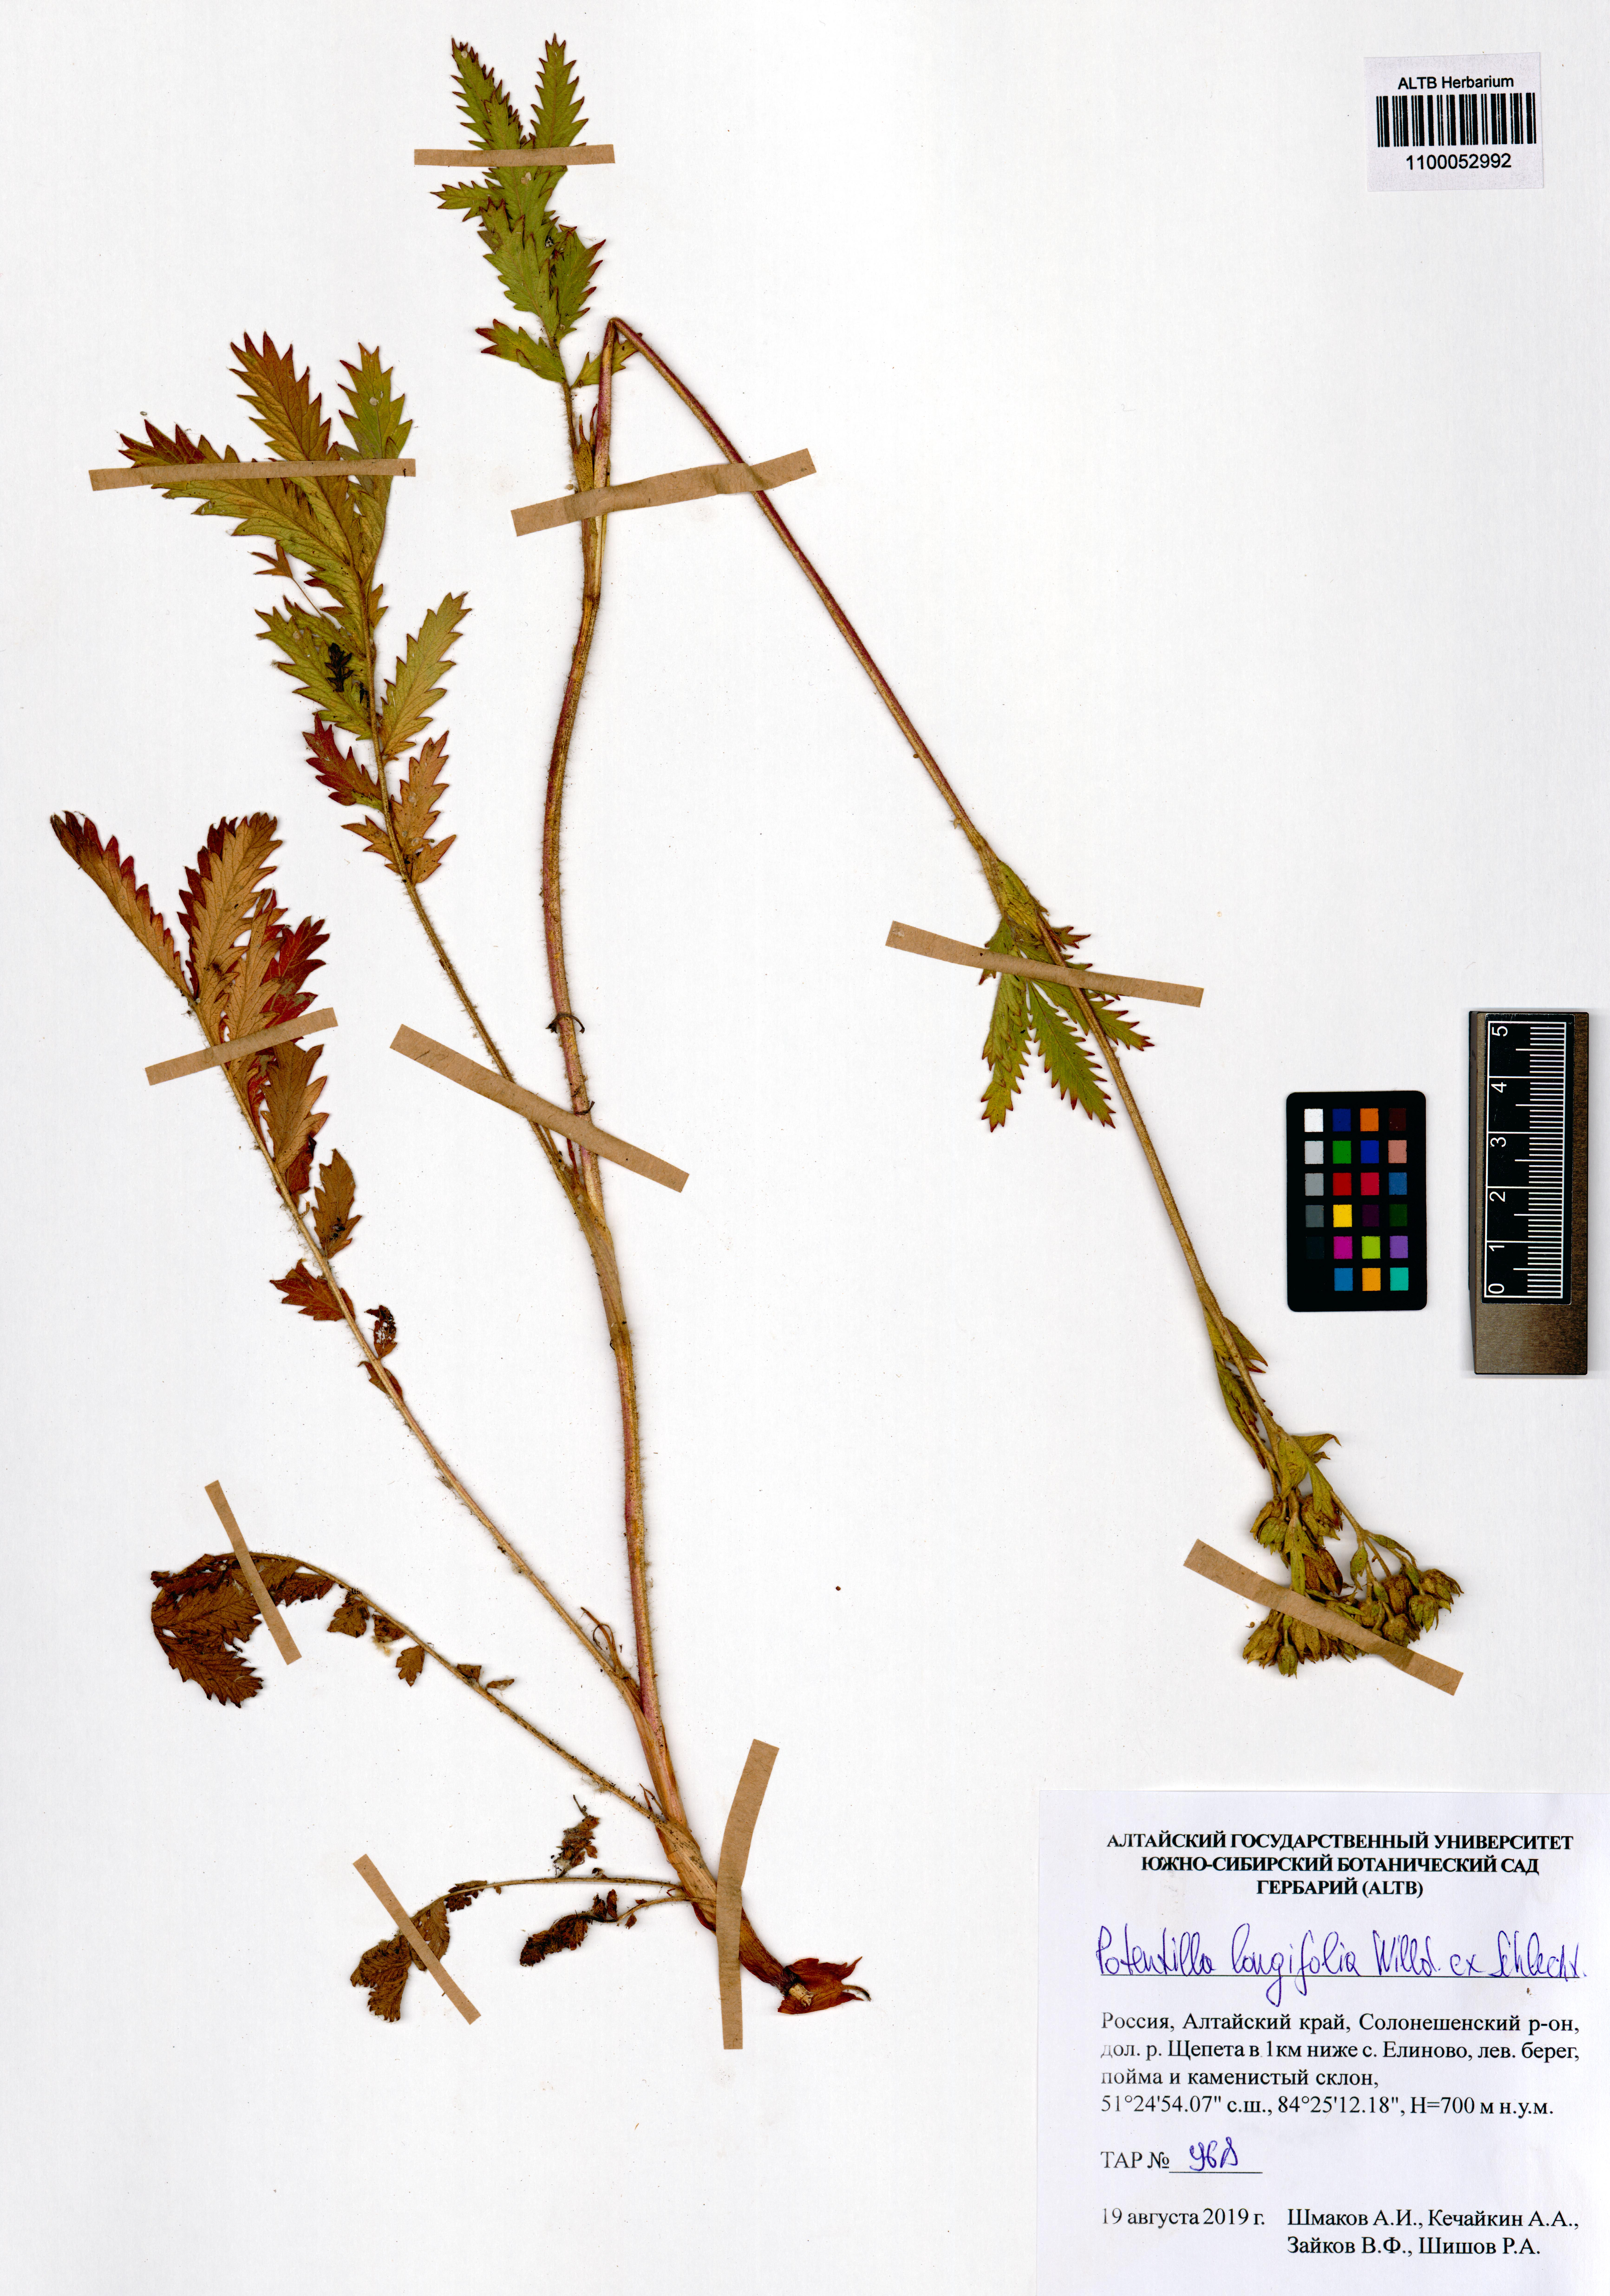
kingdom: Plantae
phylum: Tracheophyta
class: Magnoliopsida
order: Rosales
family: Rosaceae
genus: Potentilla
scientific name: Potentilla longifolia
